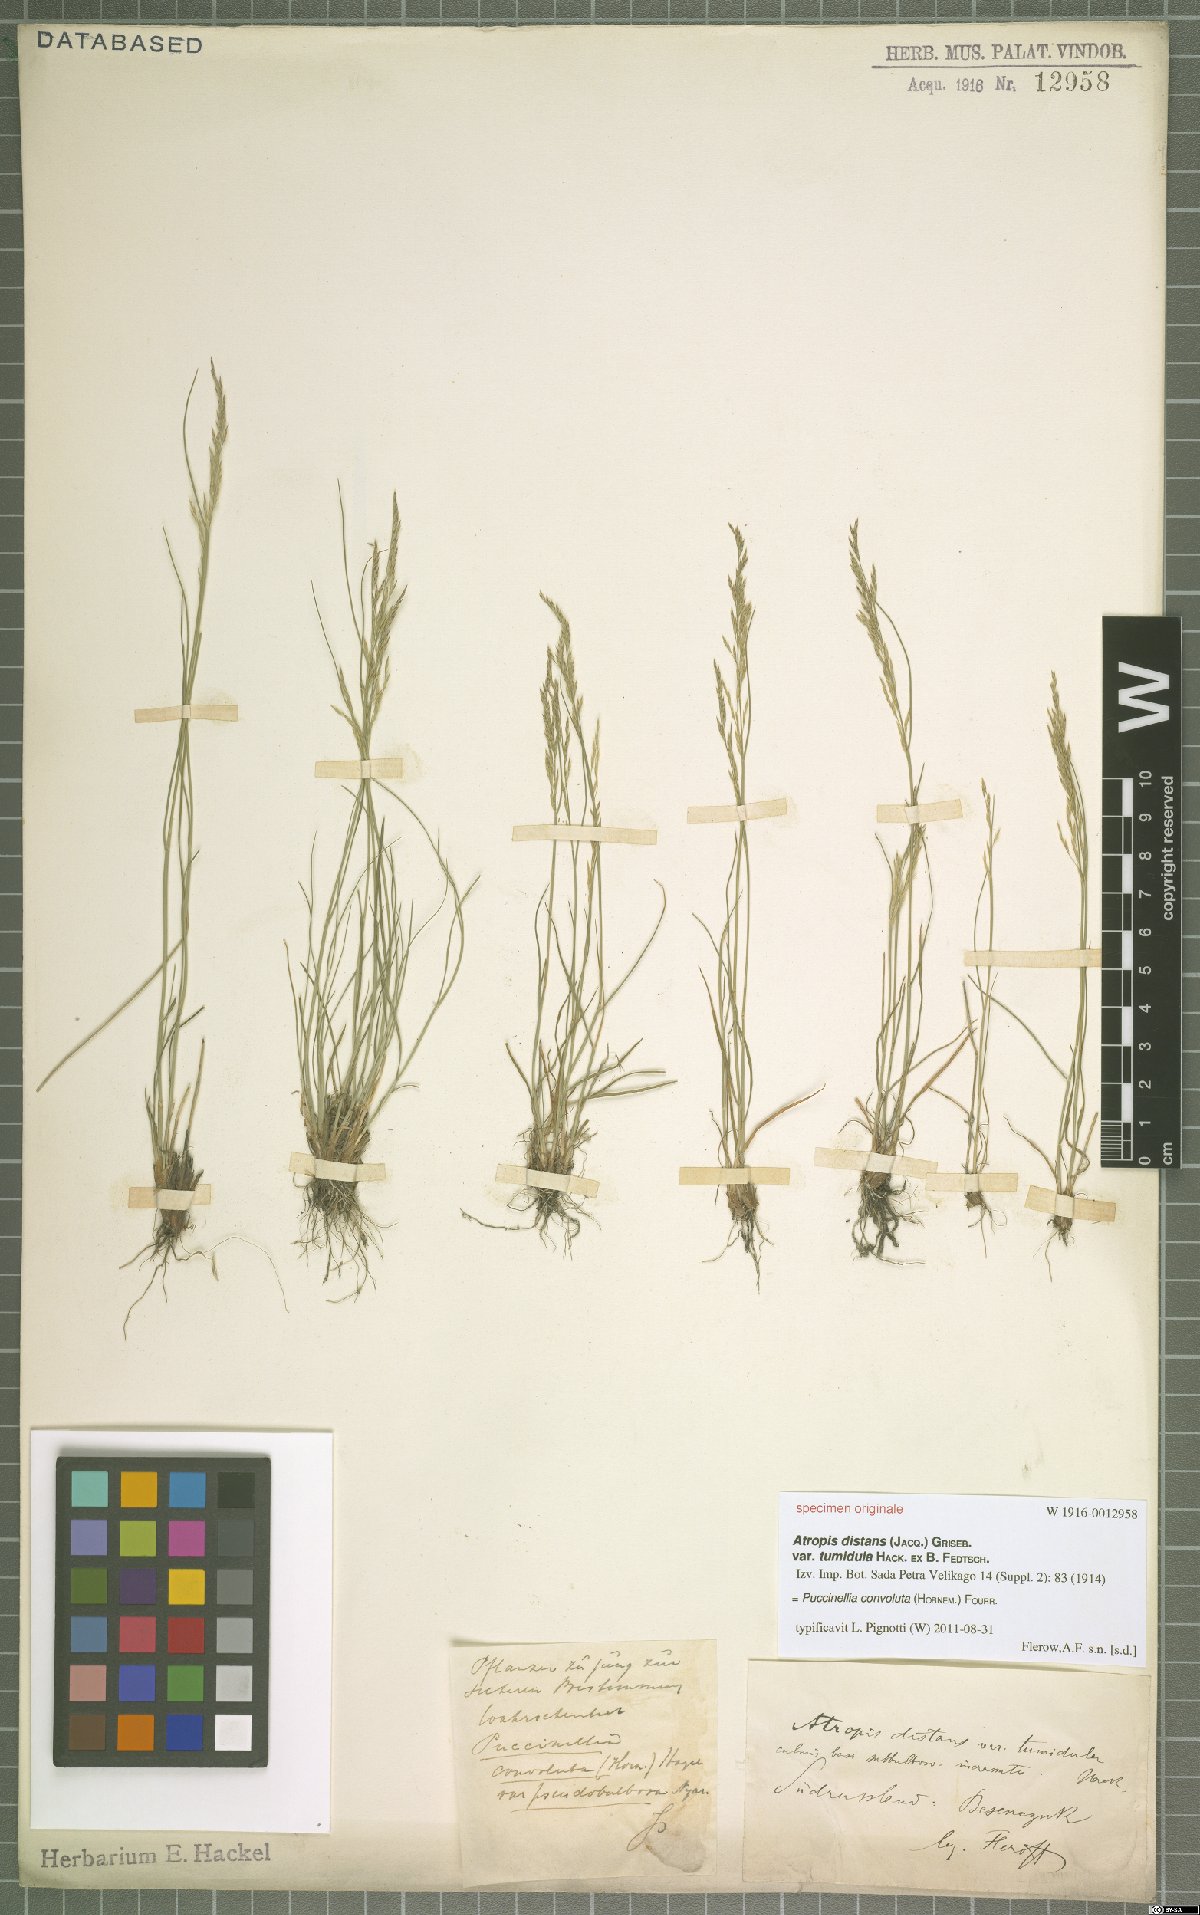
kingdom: Plantae
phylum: Tracheophyta
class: Liliopsida
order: Poales
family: Poaceae
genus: Puccinellia
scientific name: Puccinellia convoluta
